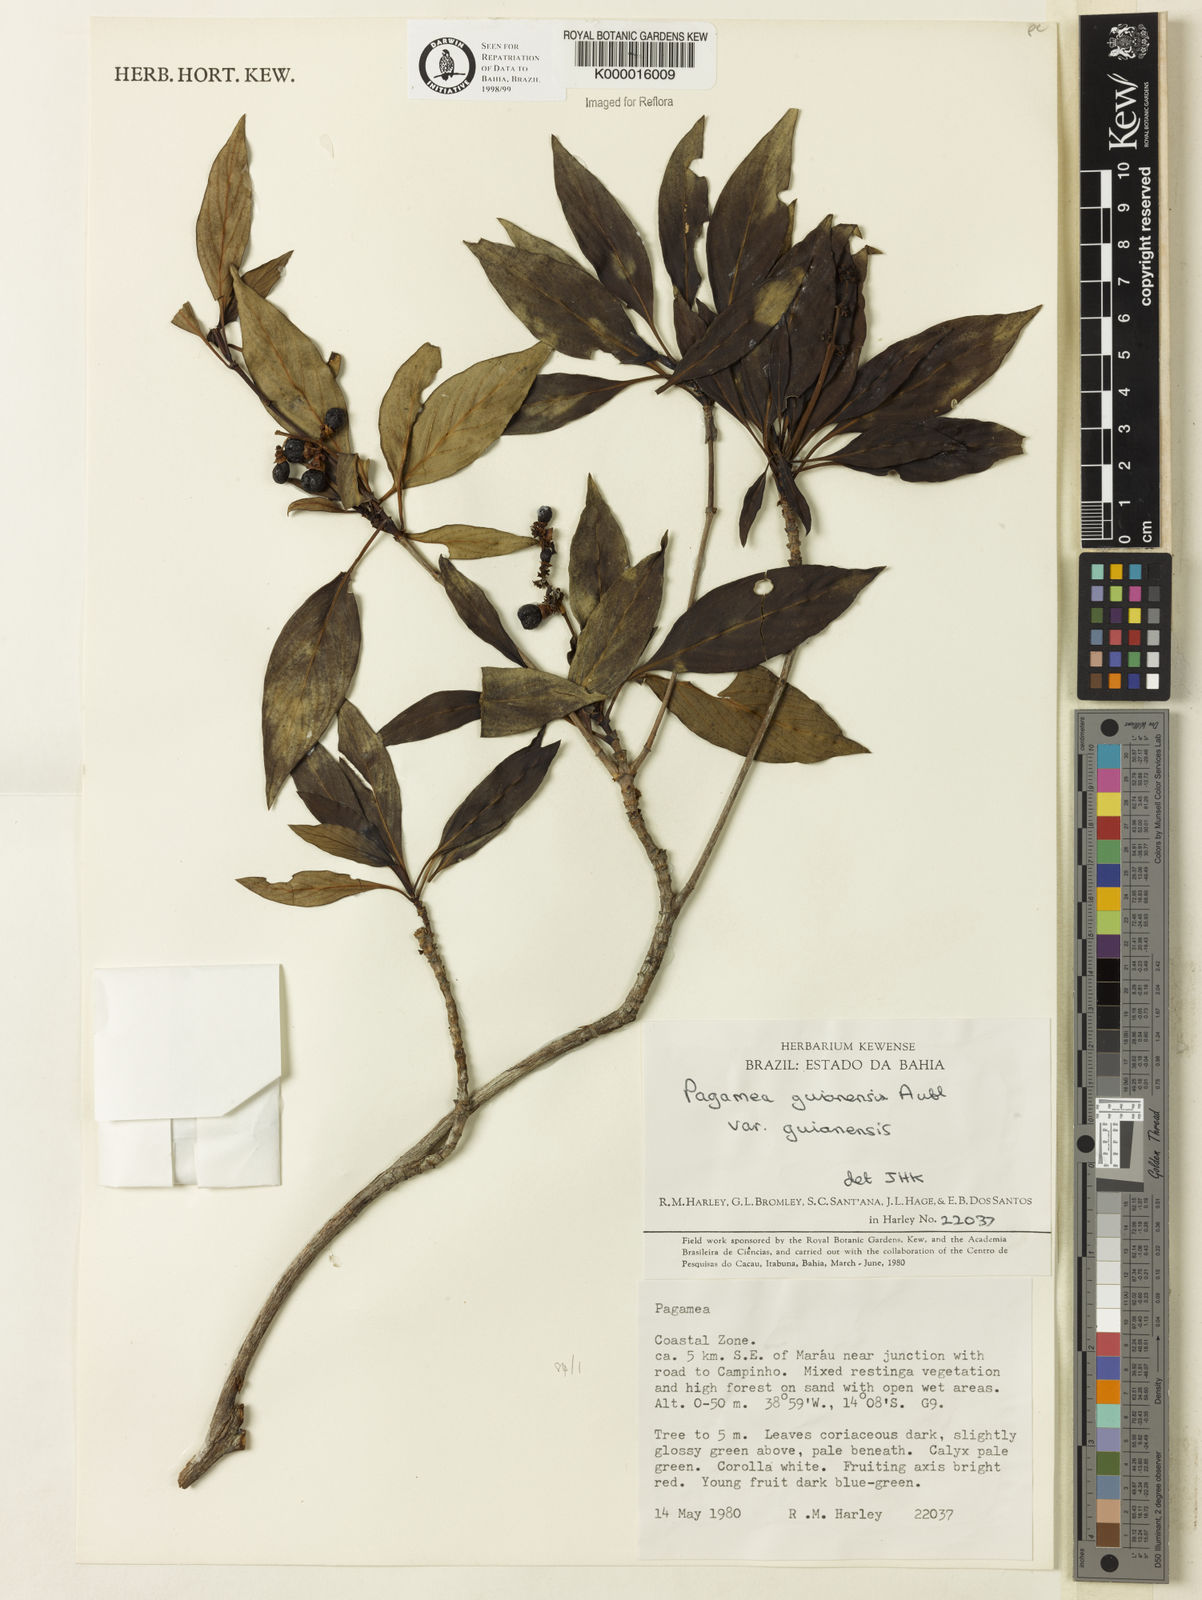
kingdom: Plantae
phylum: Tracheophyta
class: Magnoliopsida
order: Gentianales
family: Rubiaceae
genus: Pagamea
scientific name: Pagamea guianensis
